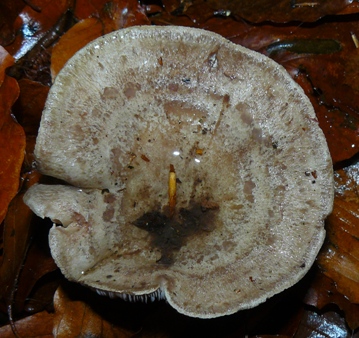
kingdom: Fungi
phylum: Basidiomycota
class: Agaricomycetes
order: Russulales
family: Russulaceae
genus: Lactarius
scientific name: Lactarius blennius
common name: dråbeplettet mælkehat
